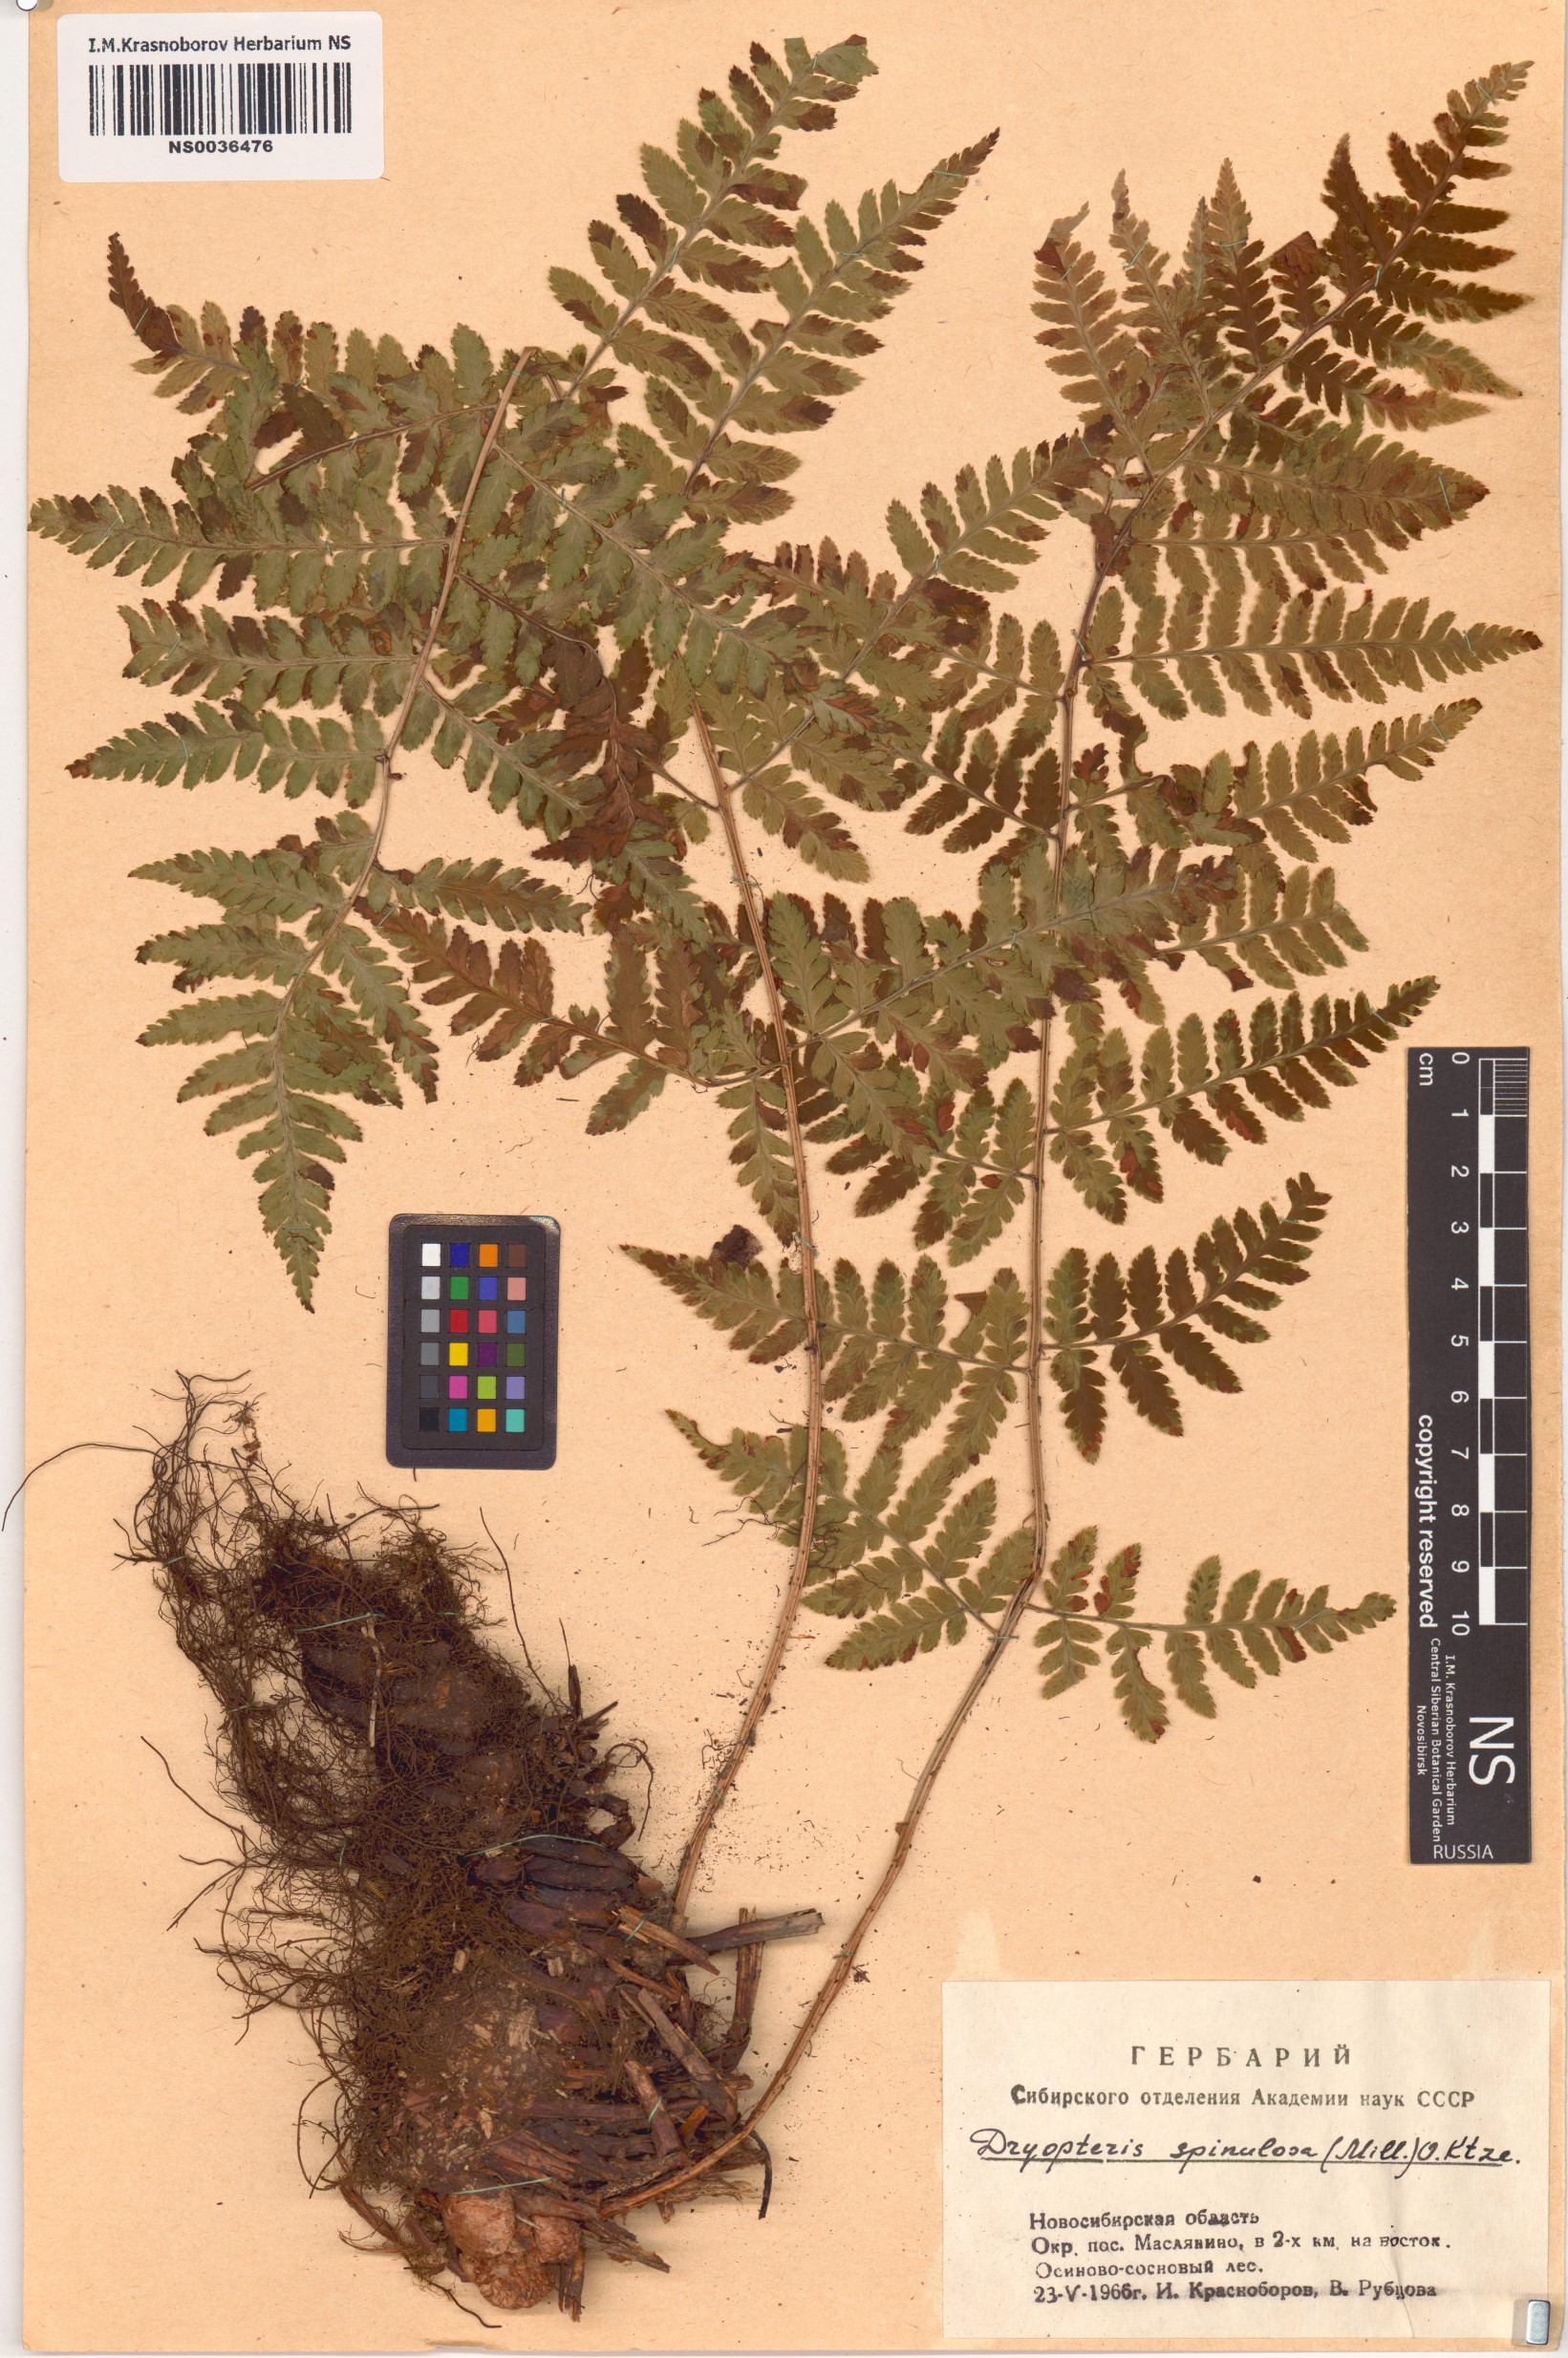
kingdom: Plantae
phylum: Tracheophyta
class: Polypodiopsida
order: Polypodiales
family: Dryopteridaceae
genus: Dryopteris
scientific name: Dryopteris carthusiana
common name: Narrow buckler-fern
